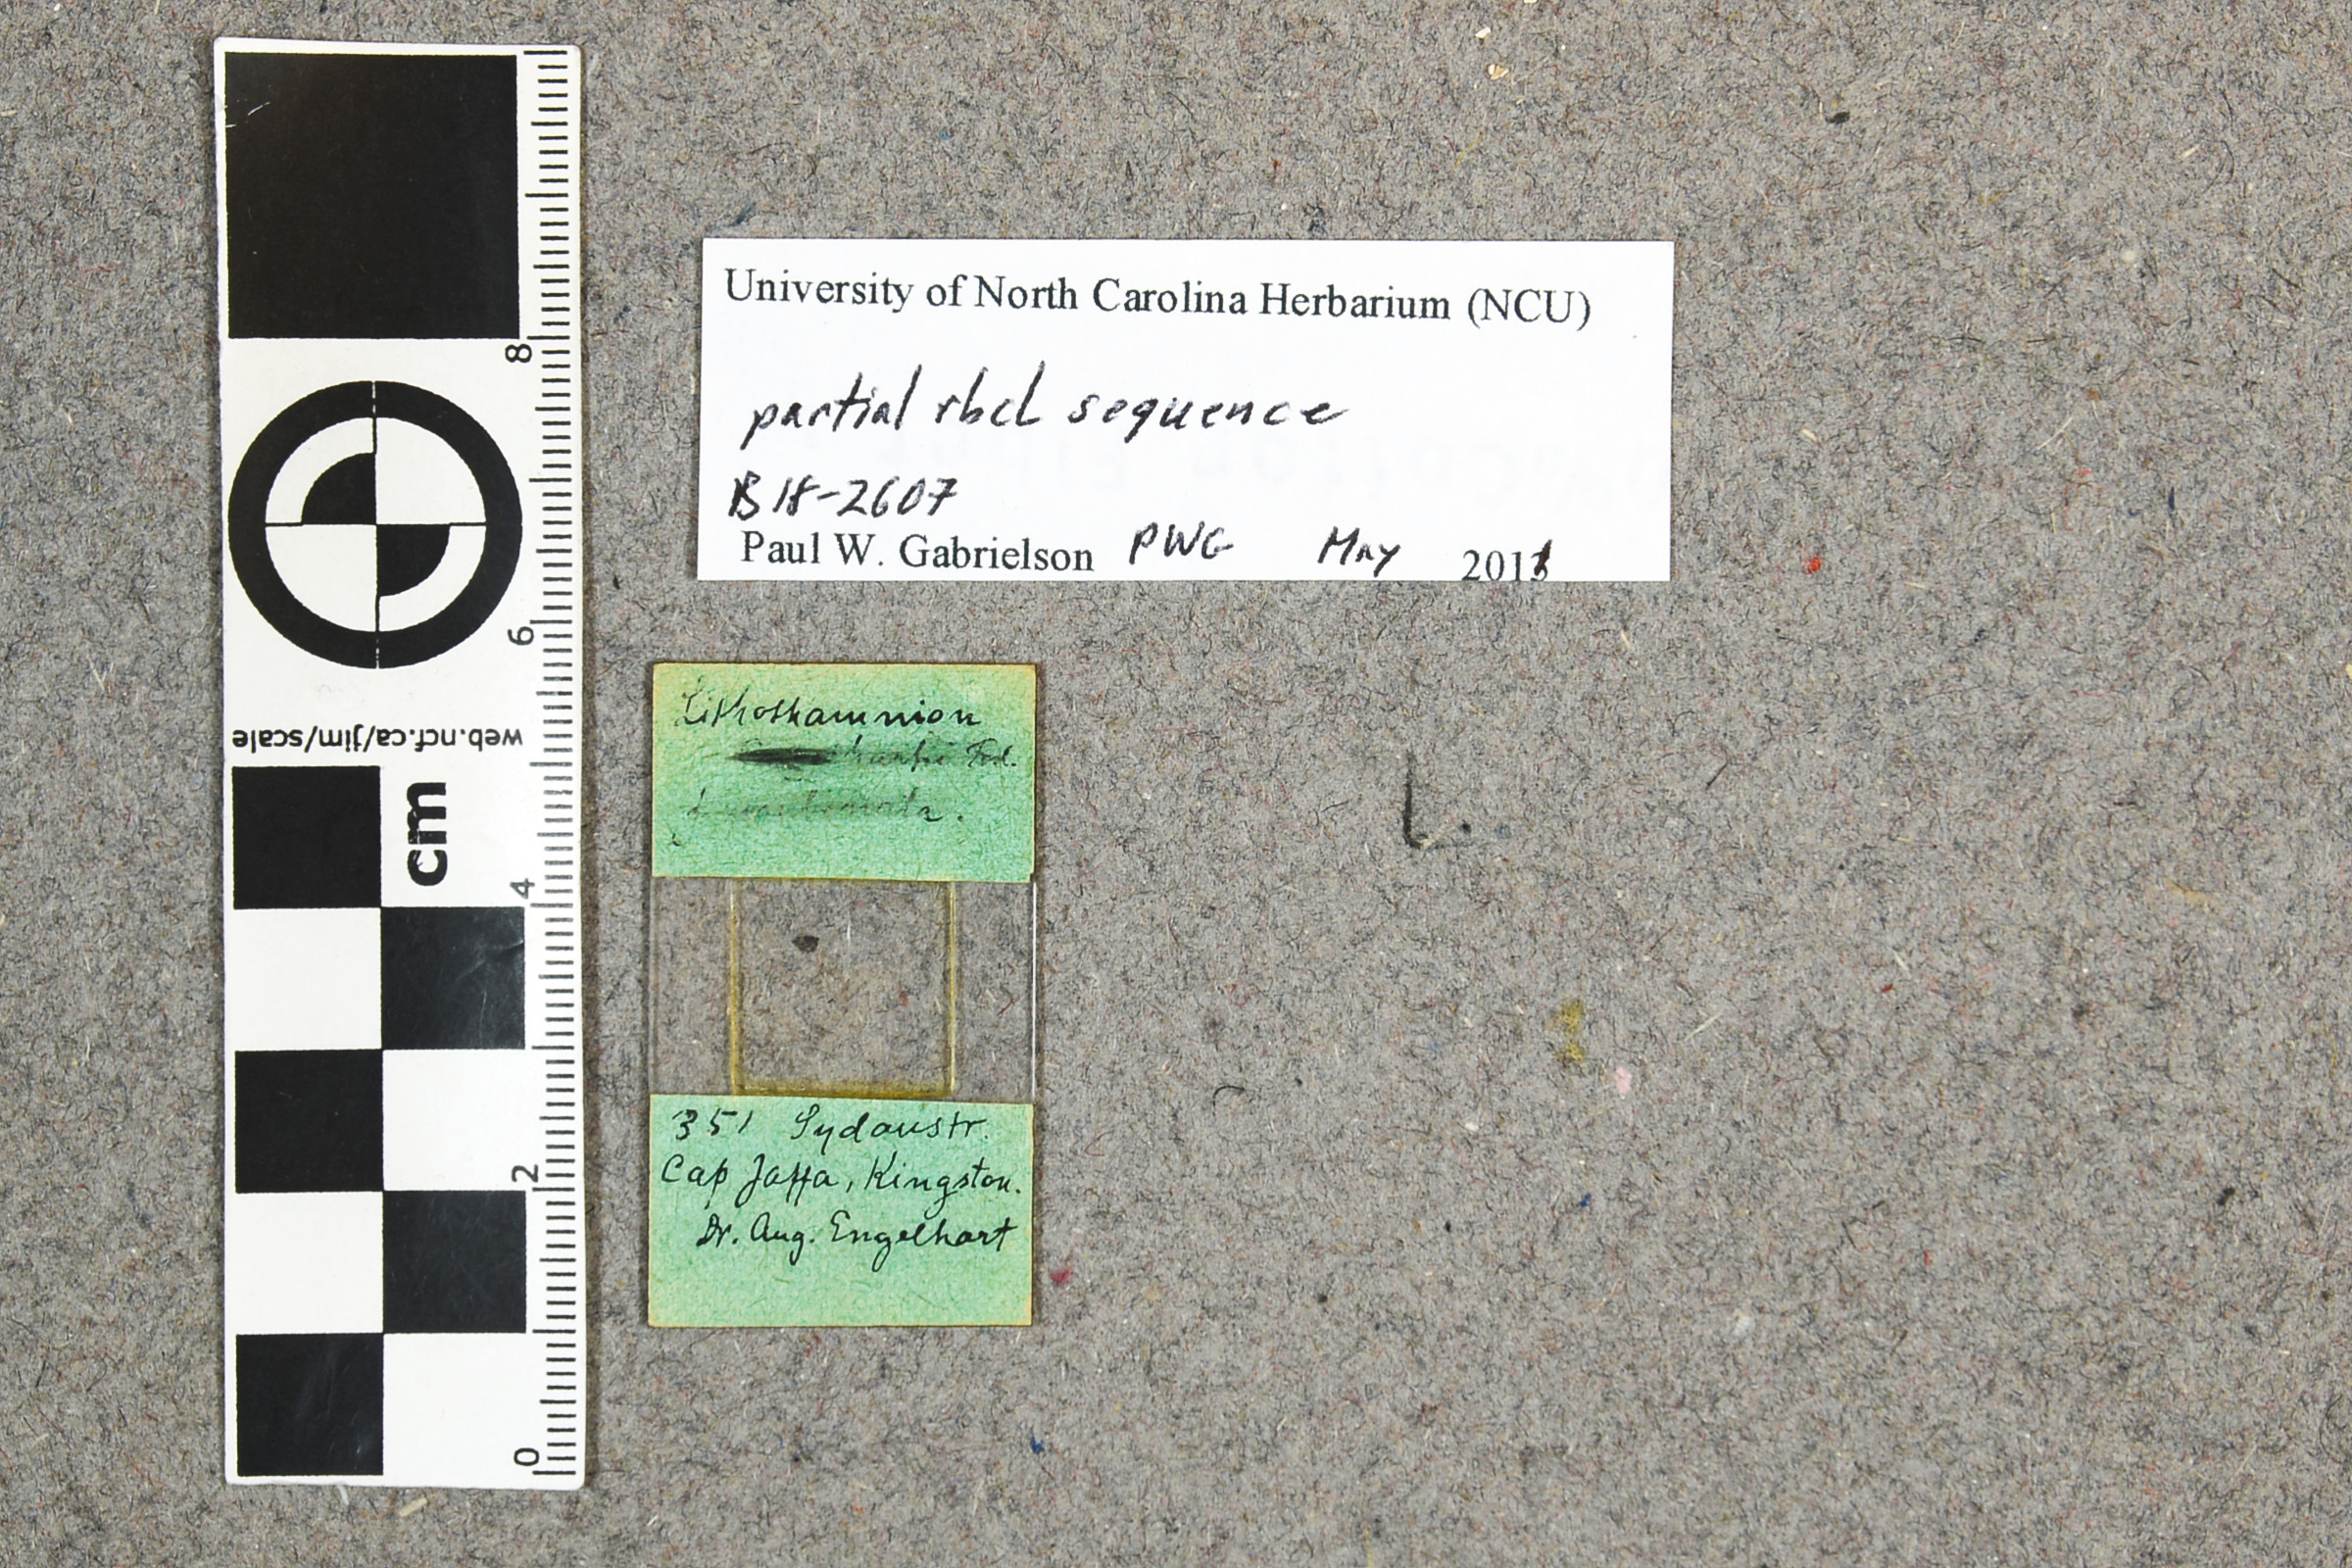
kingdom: Plantae
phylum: Rhodophyta
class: Florideophyceae
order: Corallinales
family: Mesophyllumaceae
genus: Mesophyllum
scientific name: Mesophyllum engelhartii
